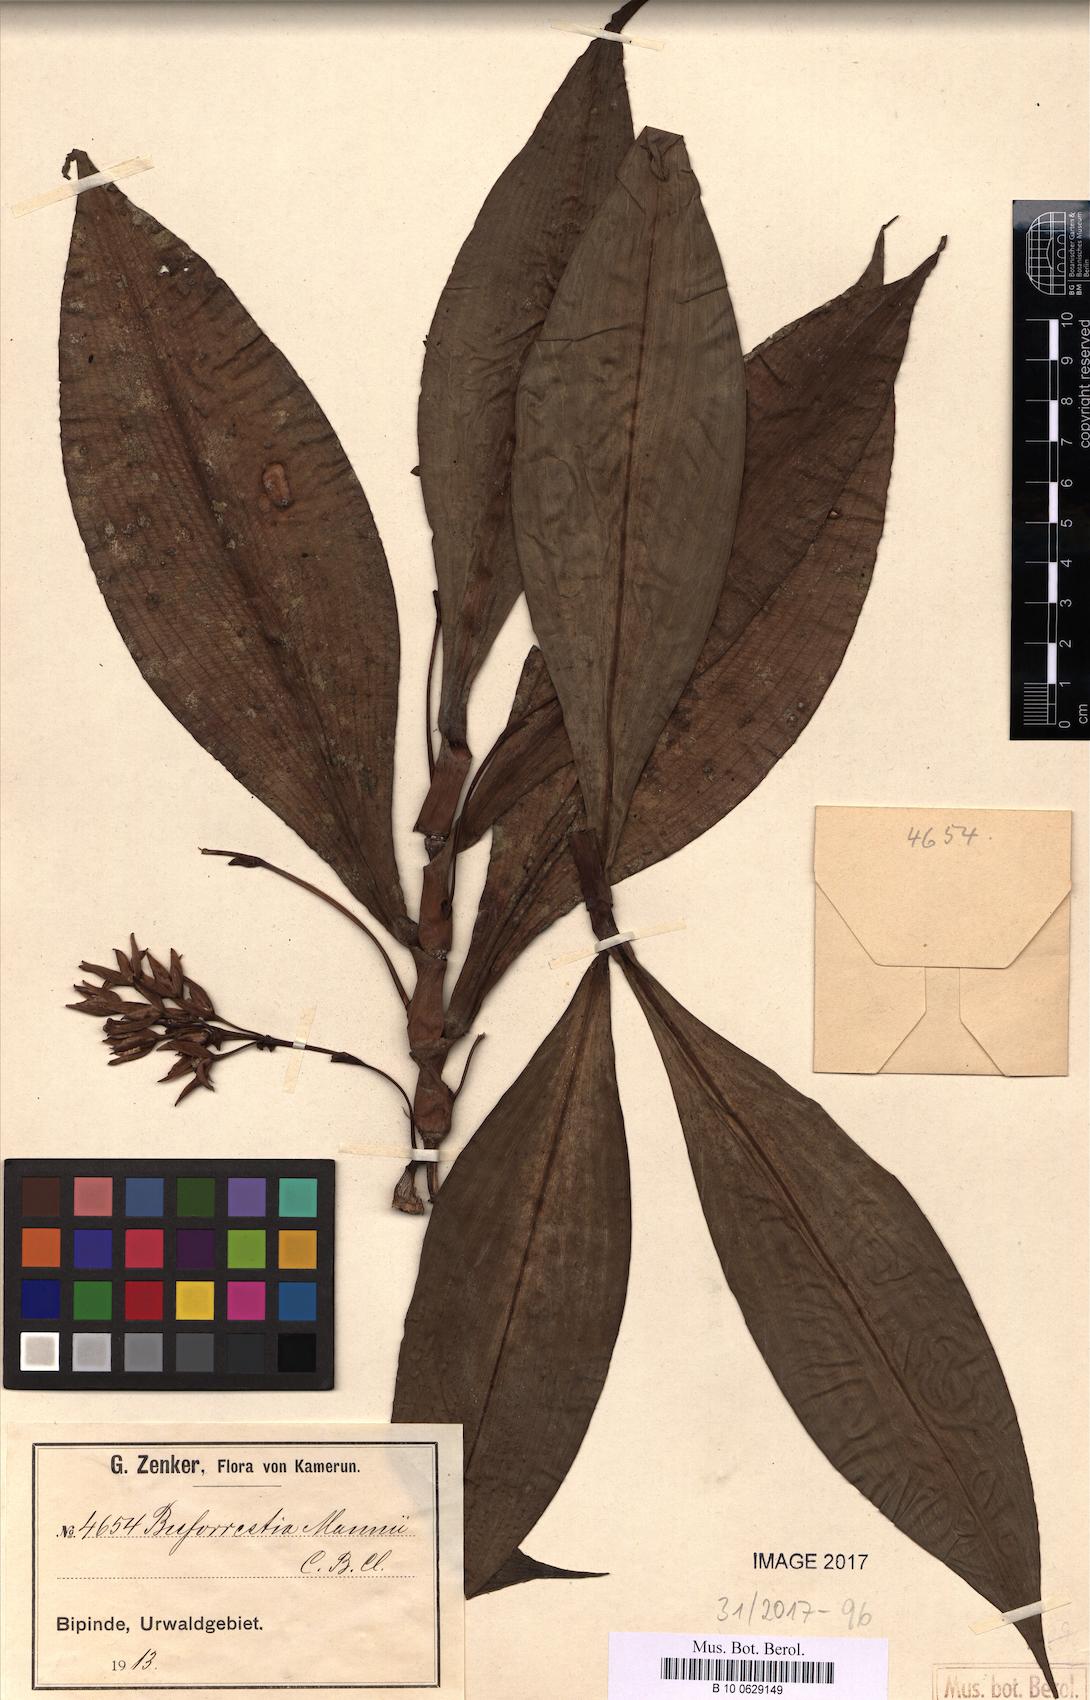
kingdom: Plantae
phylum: Tracheophyta
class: Liliopsida
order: Commelinales
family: Commelinaceae
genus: Buforrestia
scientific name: Buforrestia mannii
